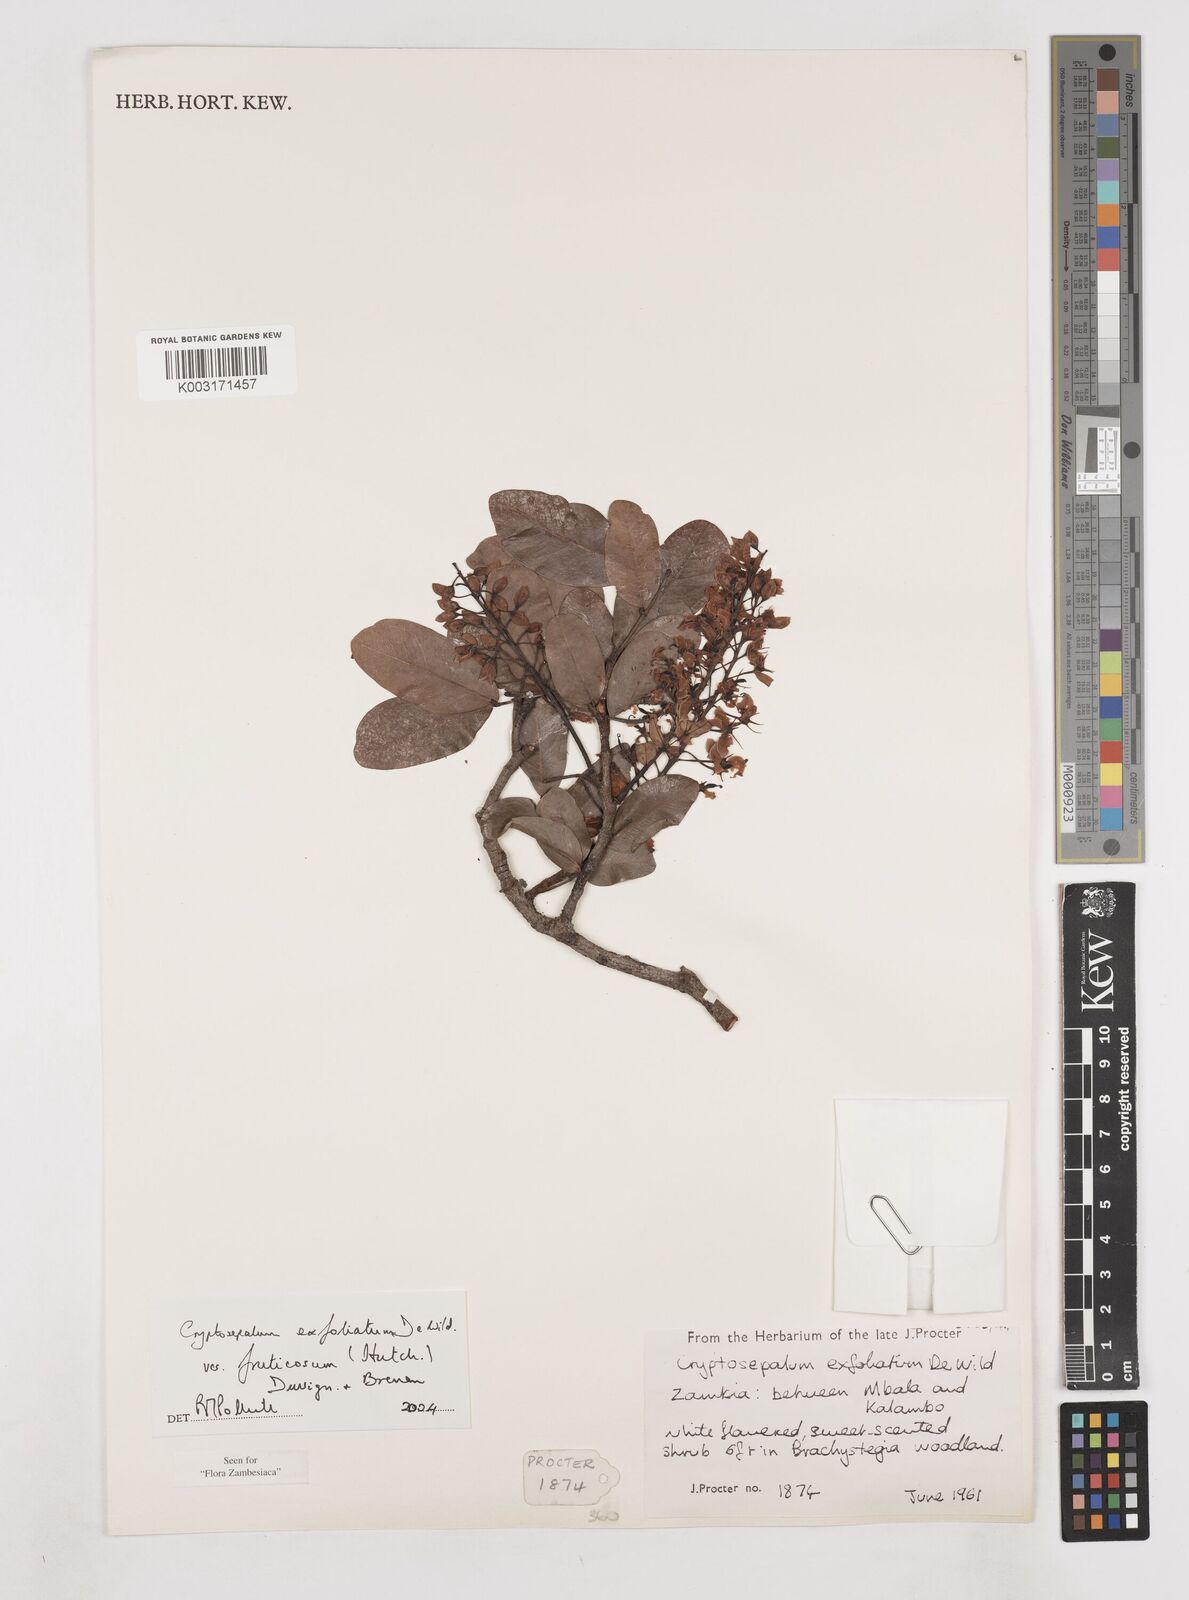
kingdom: Plantae
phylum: Tracheophyta
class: Magnoliopsida
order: Fabales
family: Fabaceae
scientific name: Fabaceae
